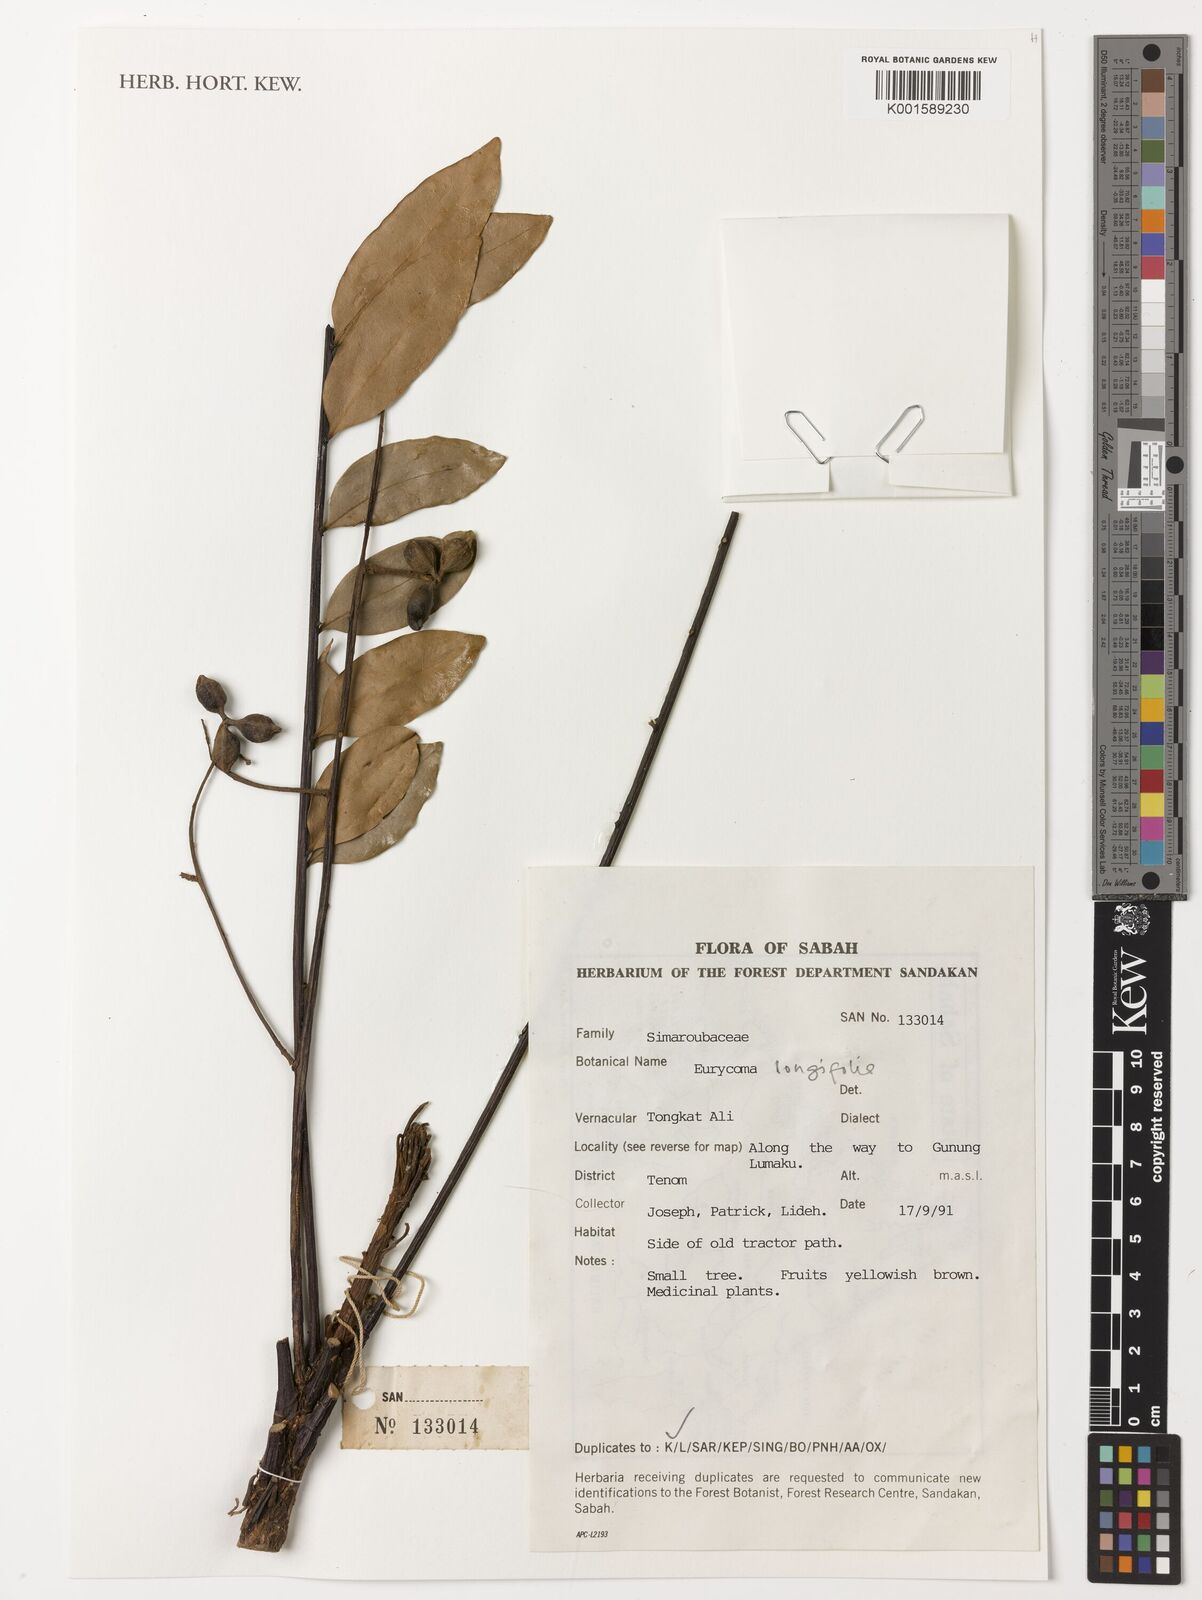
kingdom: Plantae
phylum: Tracheophyta
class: Magnoliopsida
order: Sapindales
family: Simaroubaceae
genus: Eurycoma
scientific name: Eurycoma longifolia
